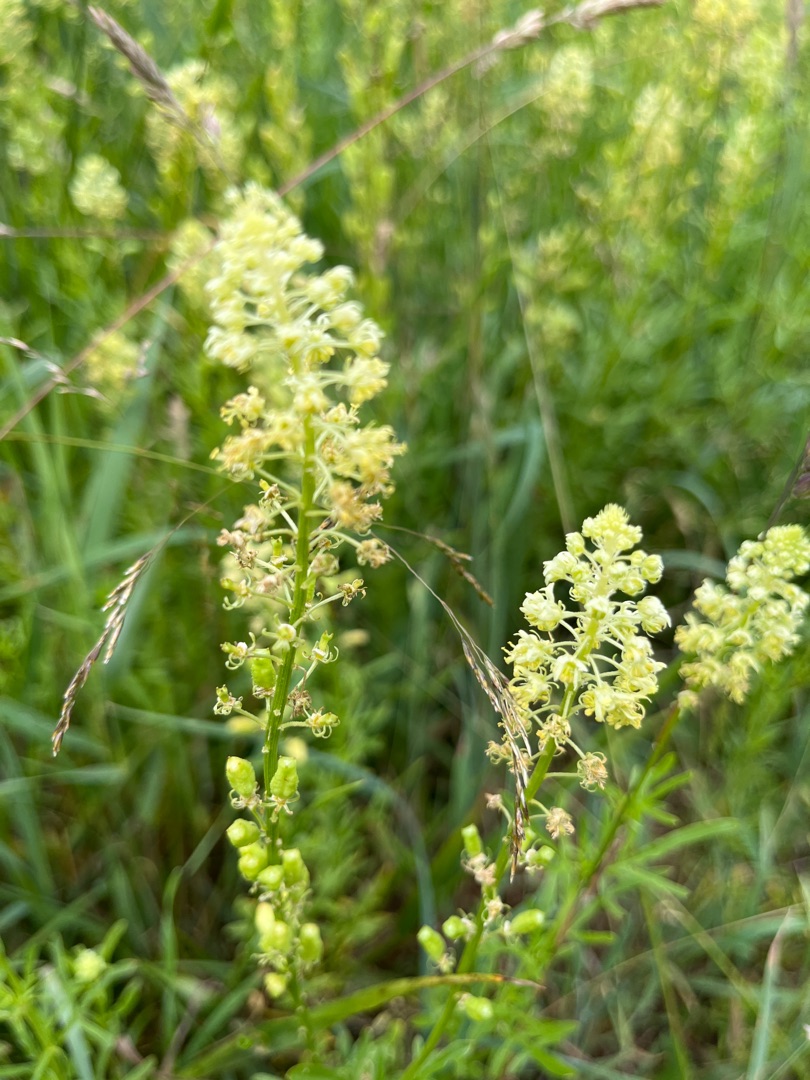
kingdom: Plantae
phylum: Tracheophyta
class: Magnoliopsida
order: Brassicales
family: Resedaceae
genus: Reseda
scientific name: Reseda lutea
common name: Gul reseda
